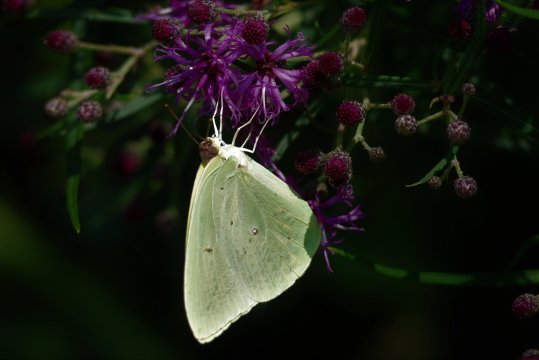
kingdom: Animalia
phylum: Arthropoda
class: Insecta
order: Lepidoptera
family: Pieridae
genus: Phoebis
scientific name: Phoebis sennae
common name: Cloudless Sulphur
